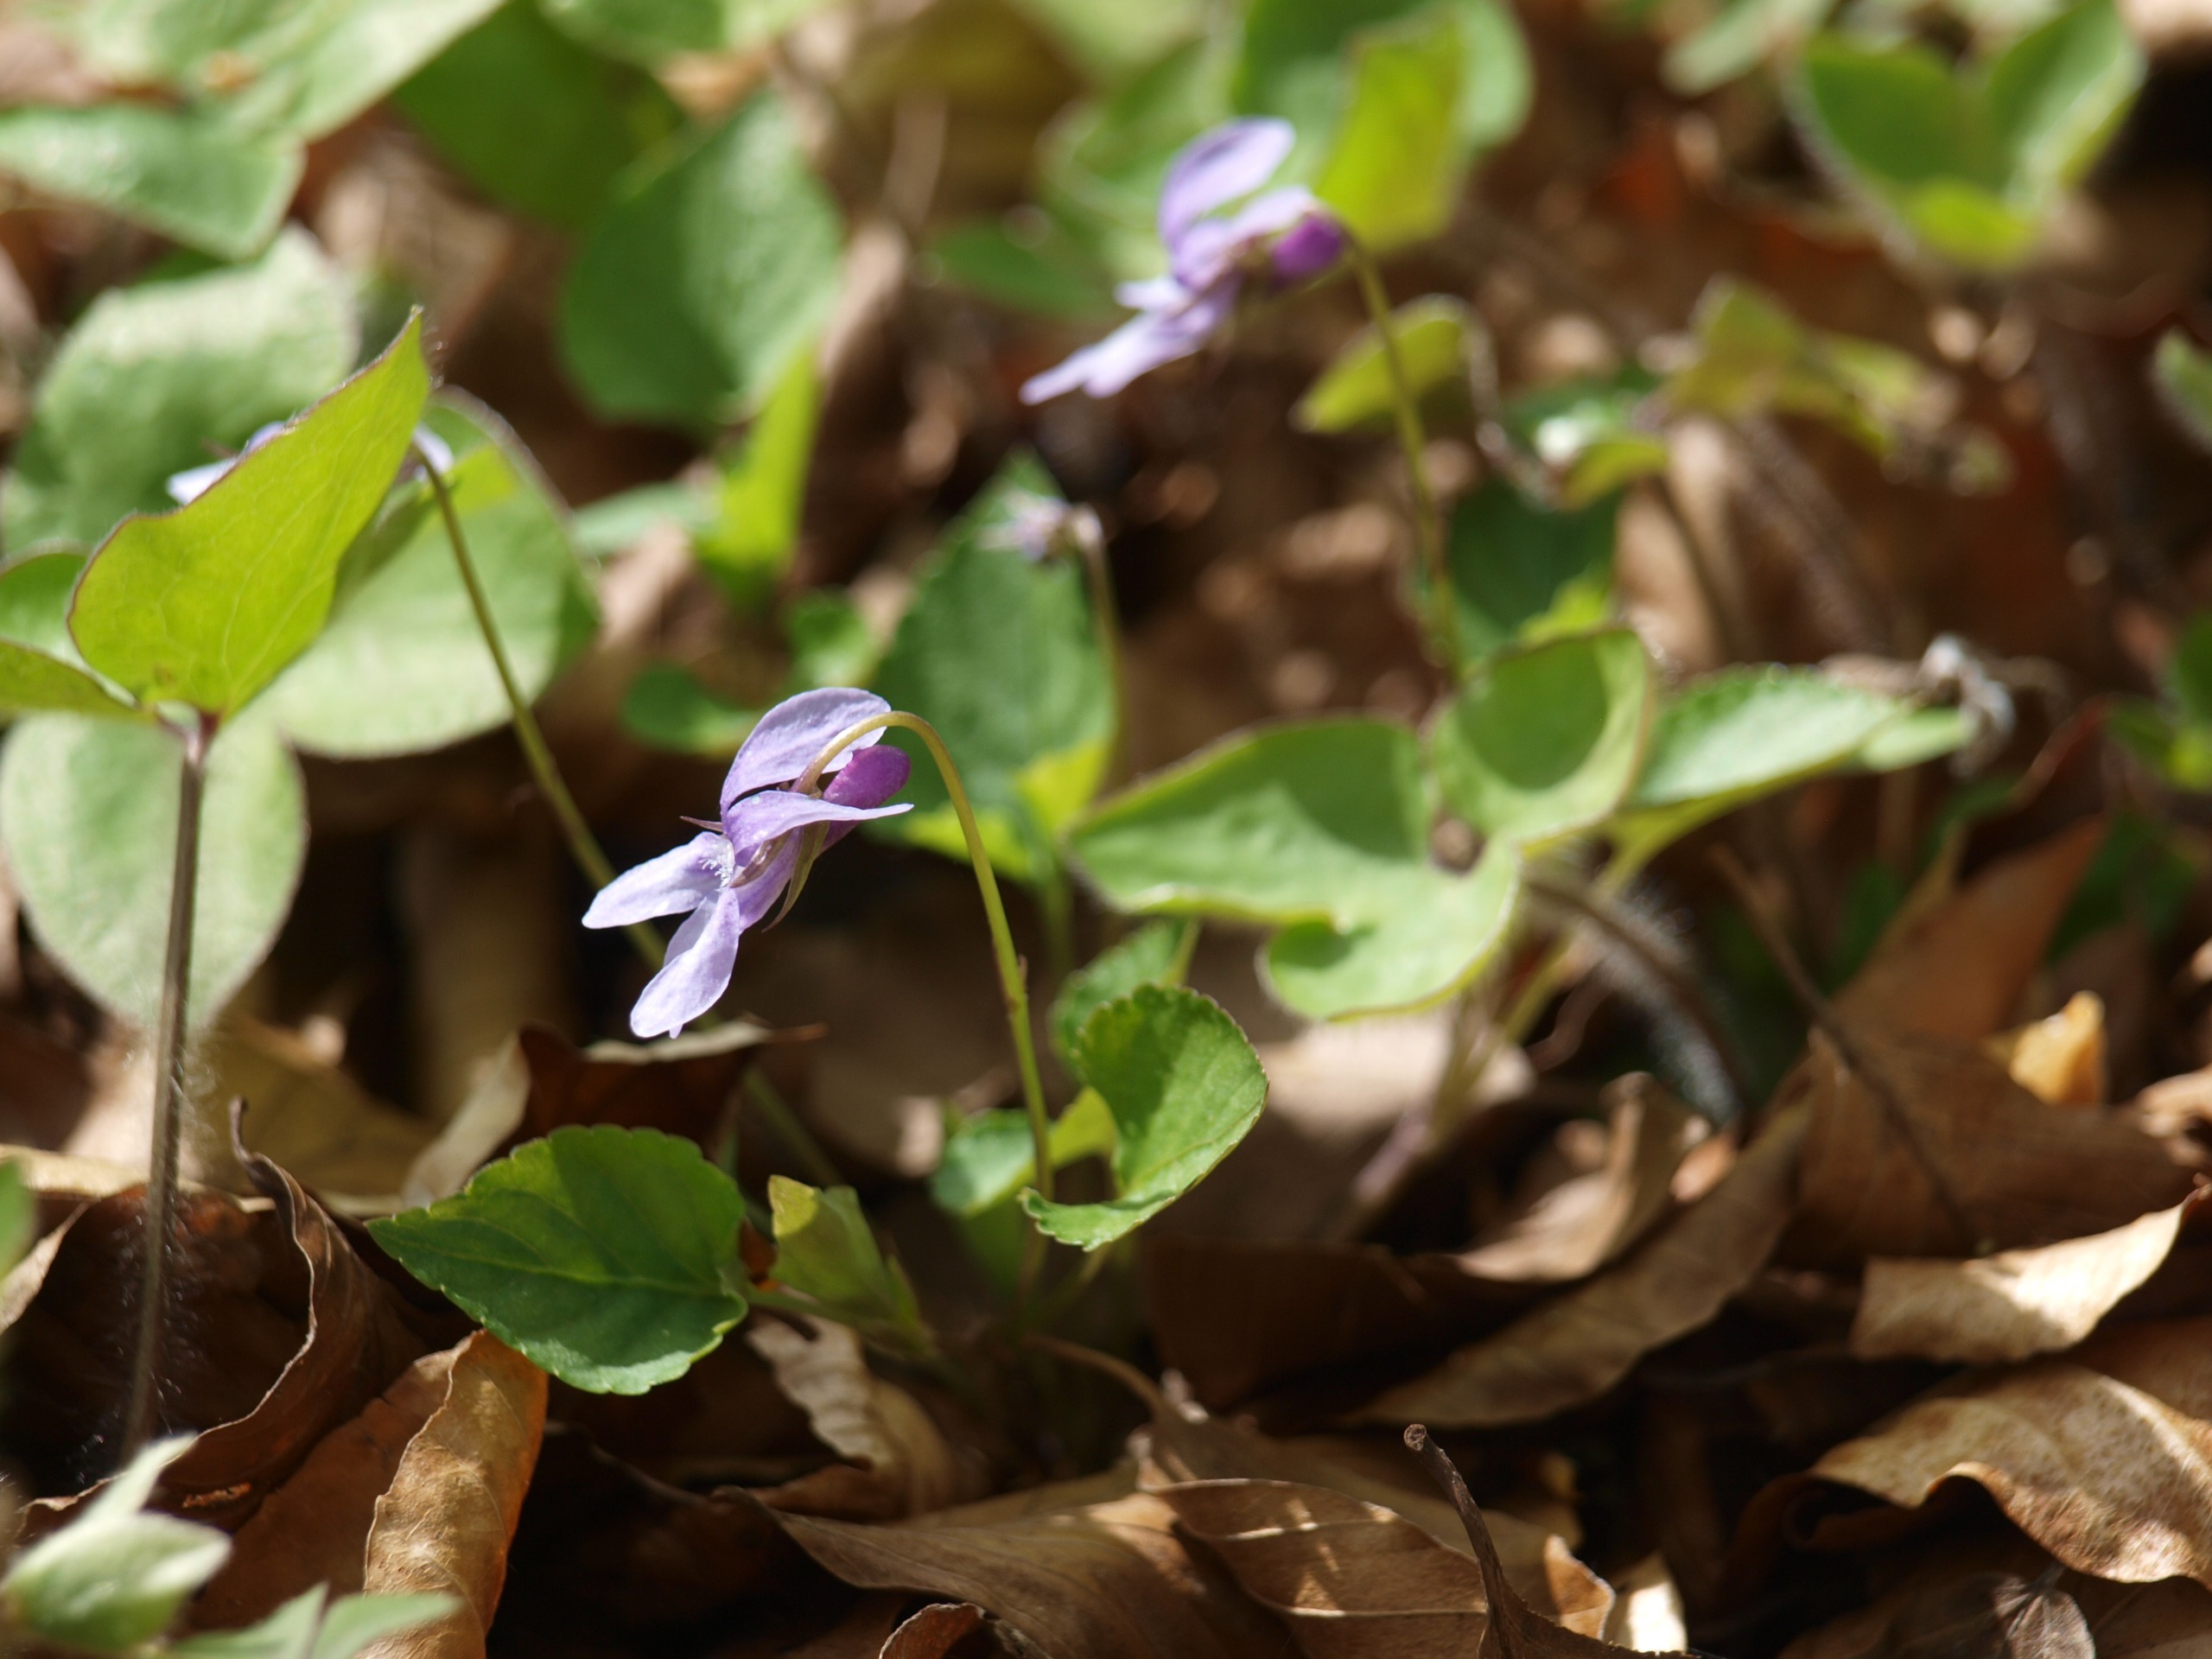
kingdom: Plantae
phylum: Tracheophyta
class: Magnoliopsida
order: Malpighiales
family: Violaceae
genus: Viola
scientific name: Viola reichenbachiana
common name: Skov-viol
